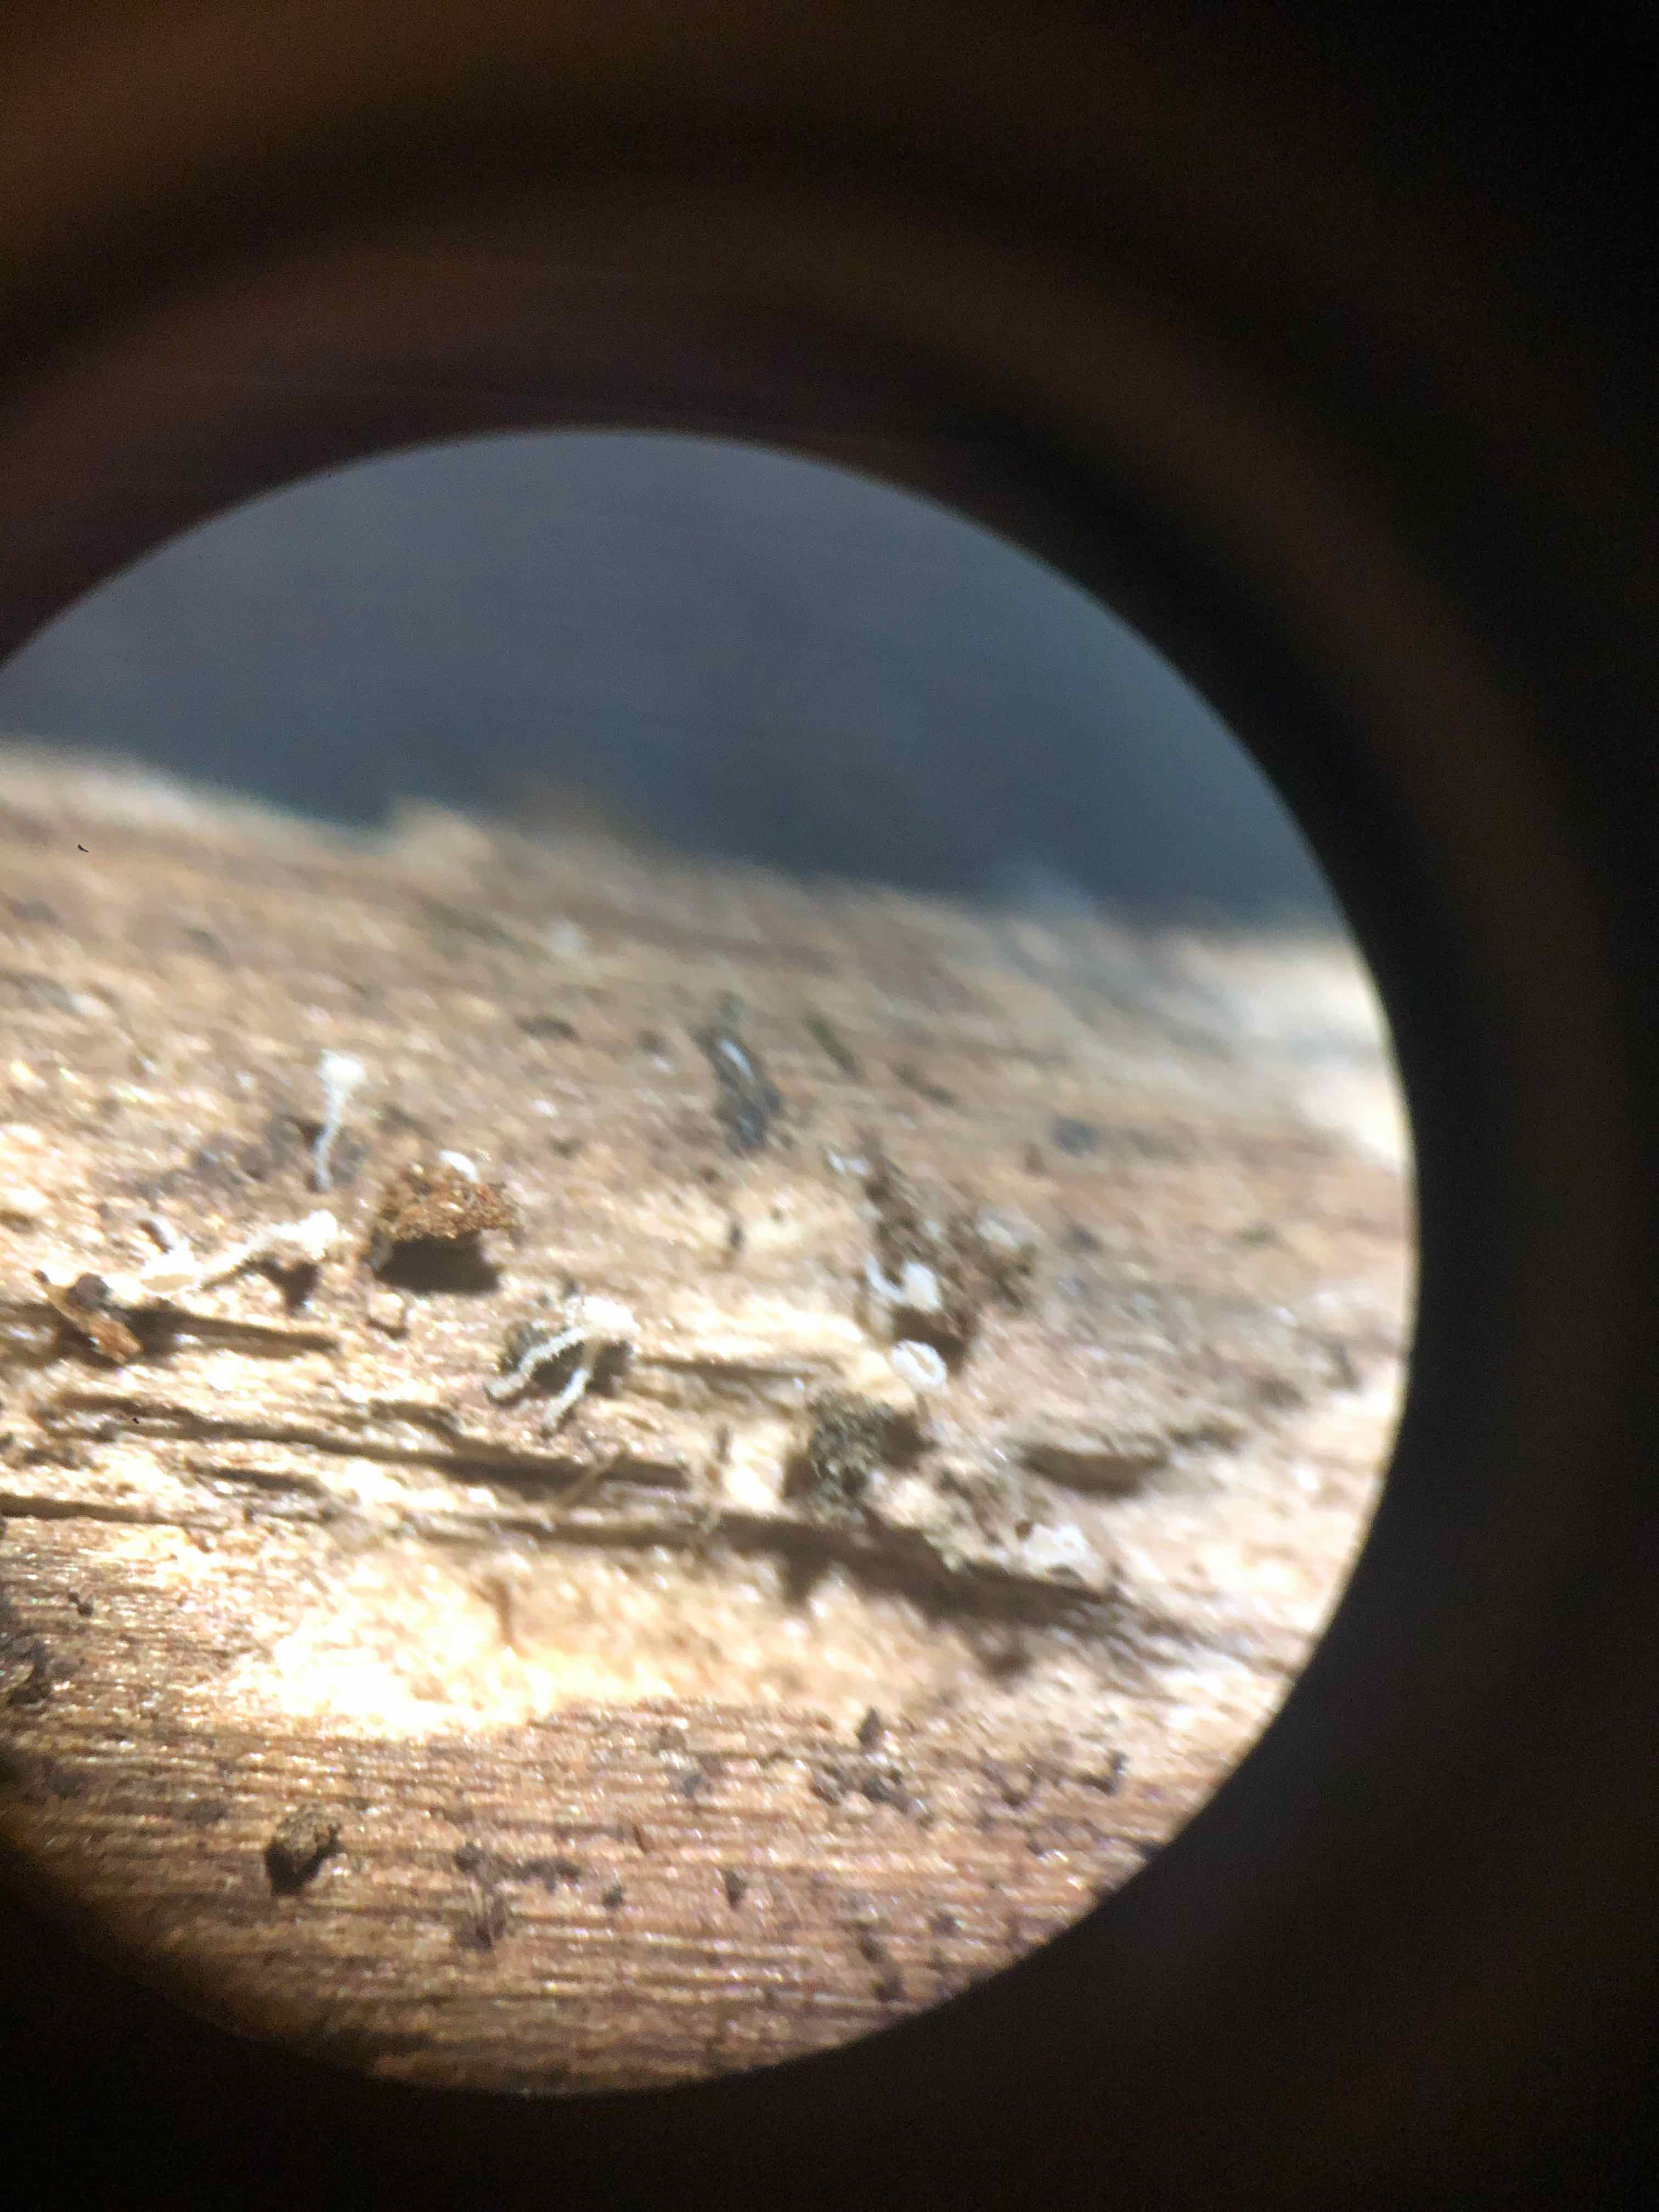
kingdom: Fungi
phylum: Ascomycota
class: Leotiomycetes
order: Helotiales
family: Lachnaceae
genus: Lachnum
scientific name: Lachnum
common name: frynseskive
